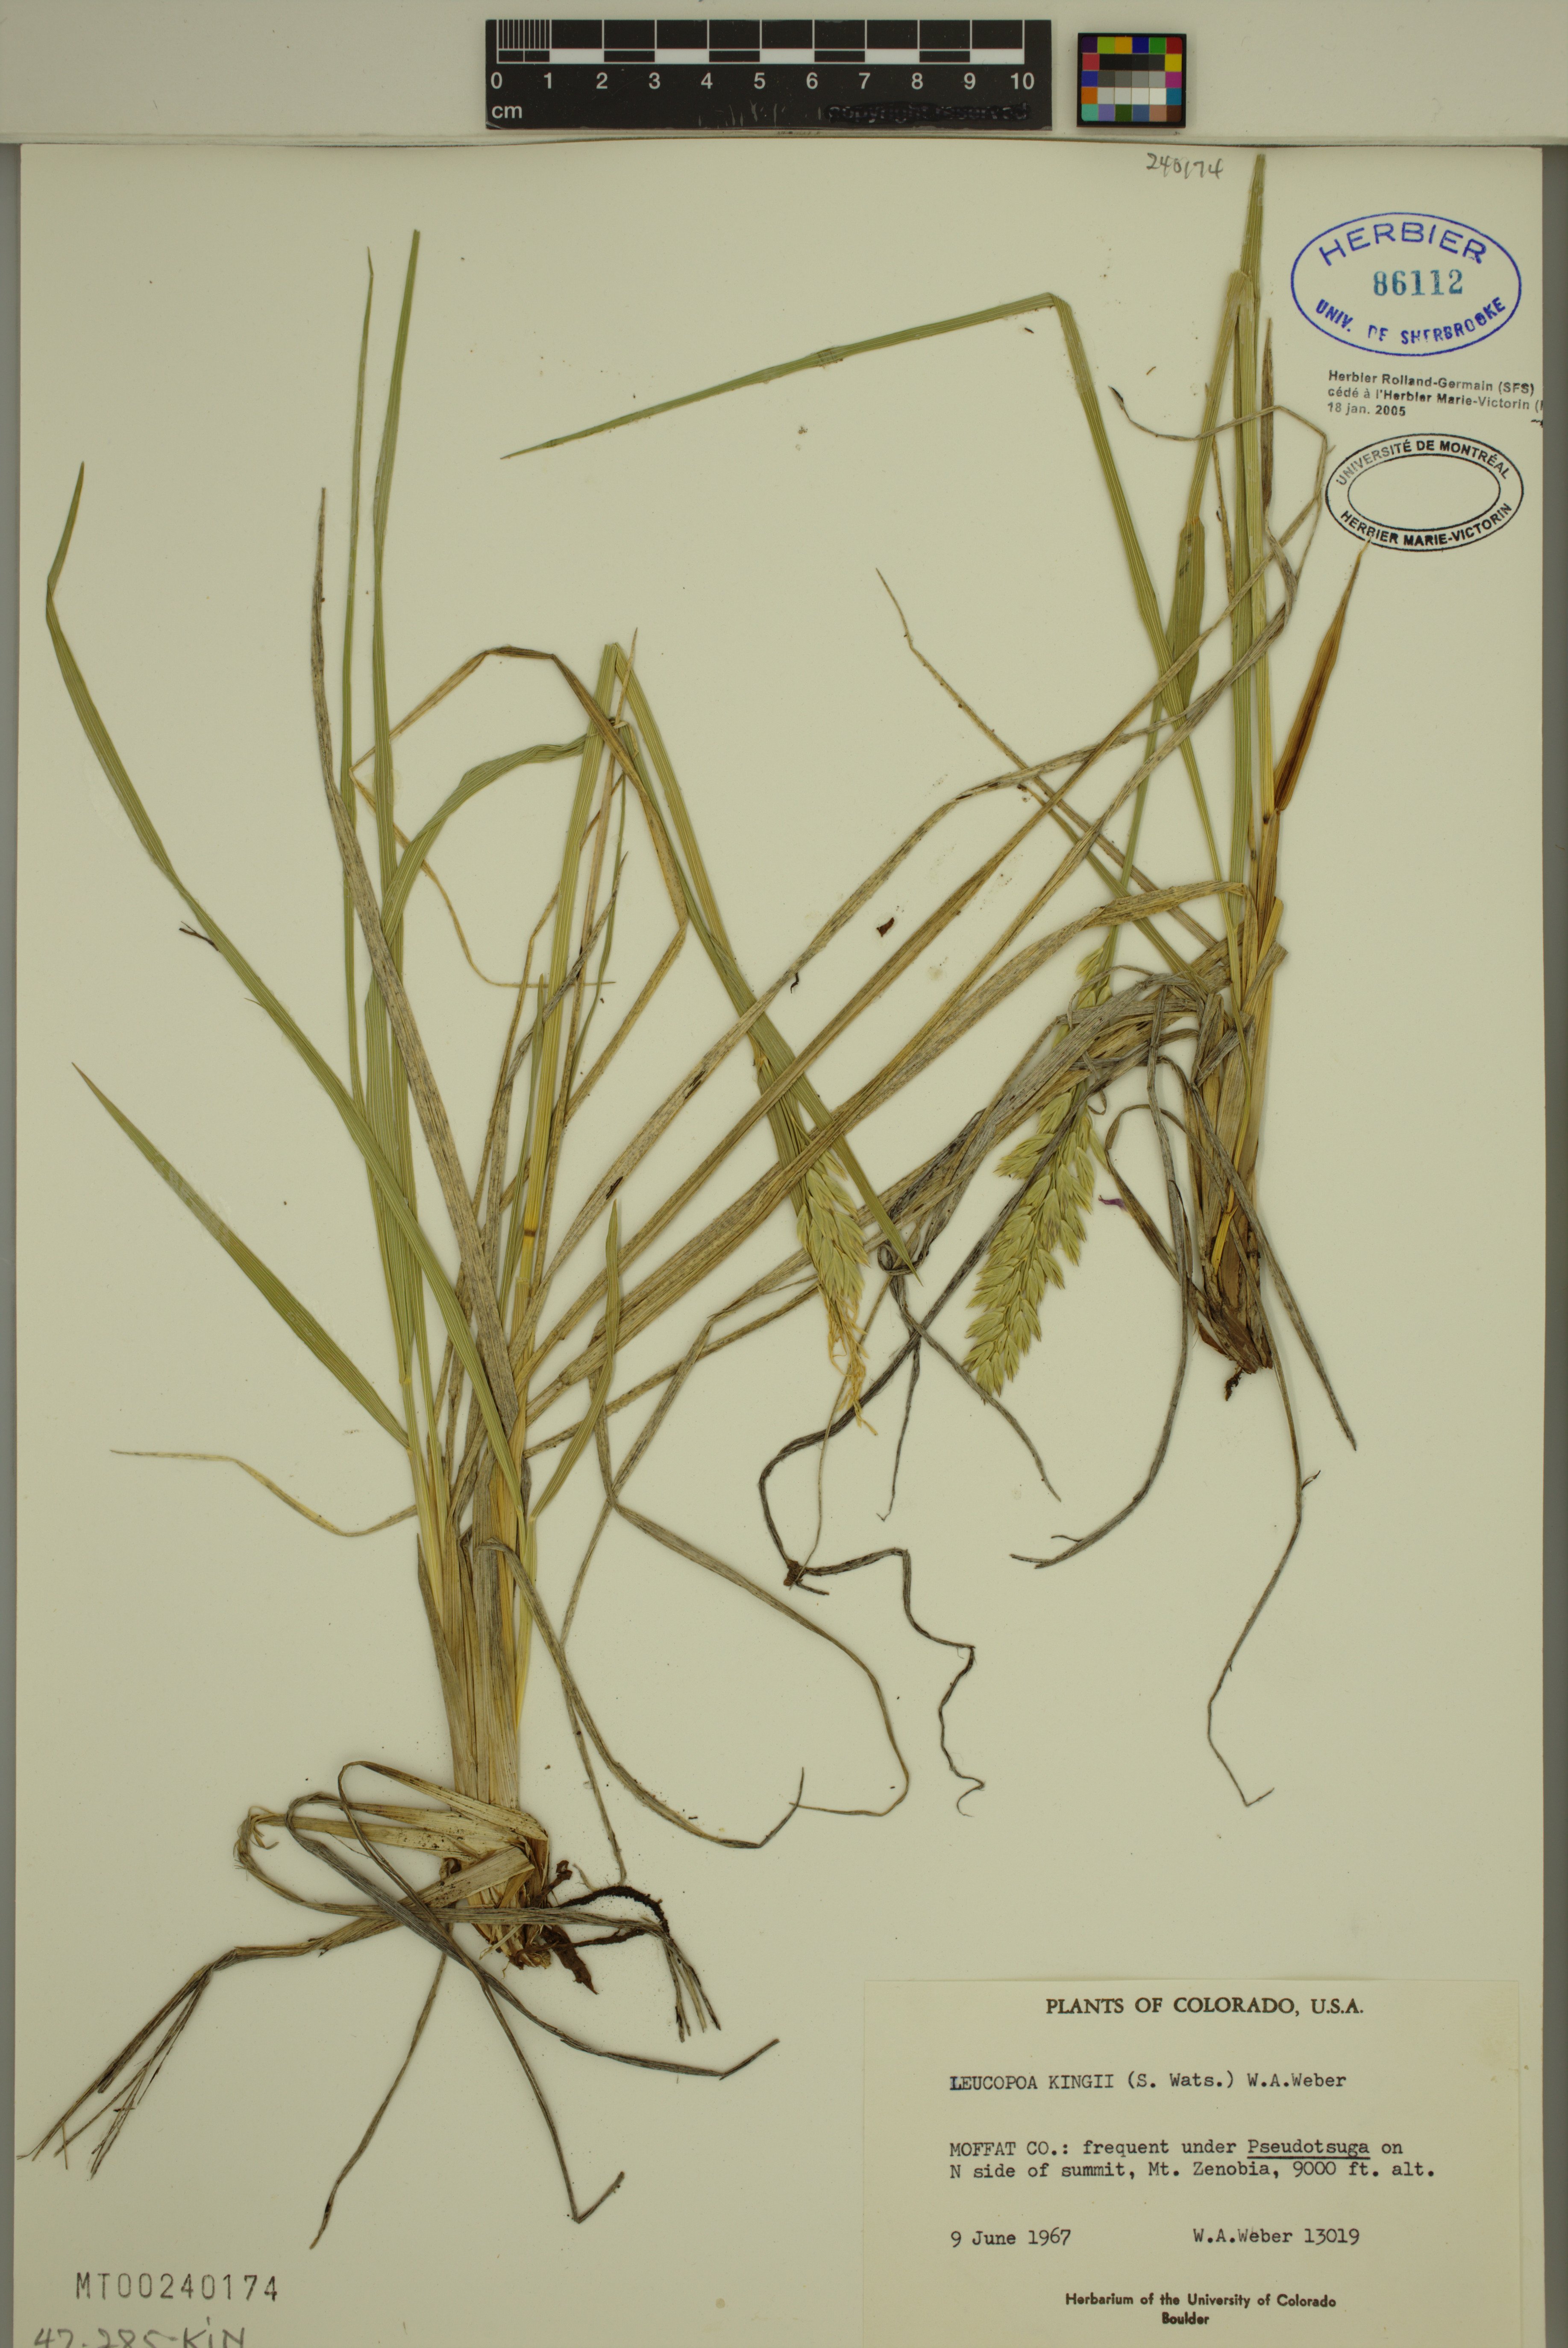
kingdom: Plantae
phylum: Tracheophyta
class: Liliopsida
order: Poales
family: Poaceae
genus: Festuca
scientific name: Festuca kingii
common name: Spike fescue
